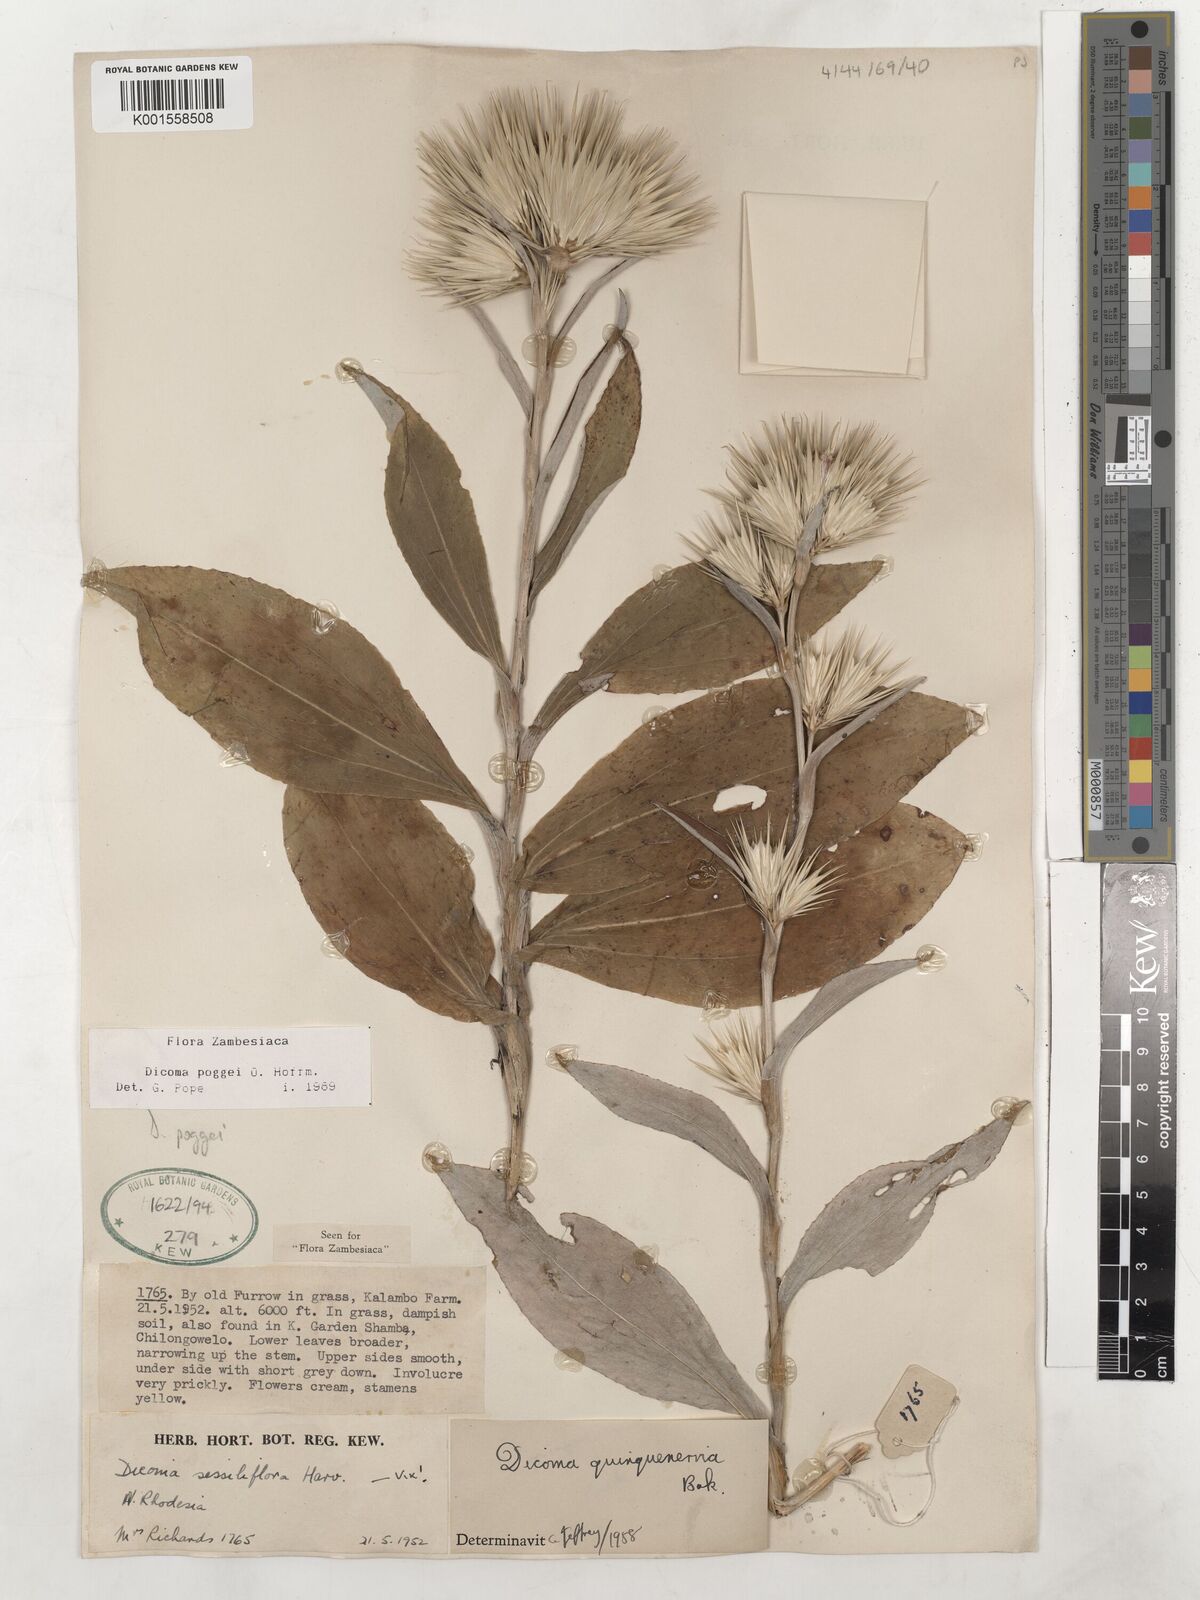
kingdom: Plantae
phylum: Tracheophyta
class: Magnoliopsida
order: Asterales
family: Asteraceae
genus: Macledium
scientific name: Macledium poggei
